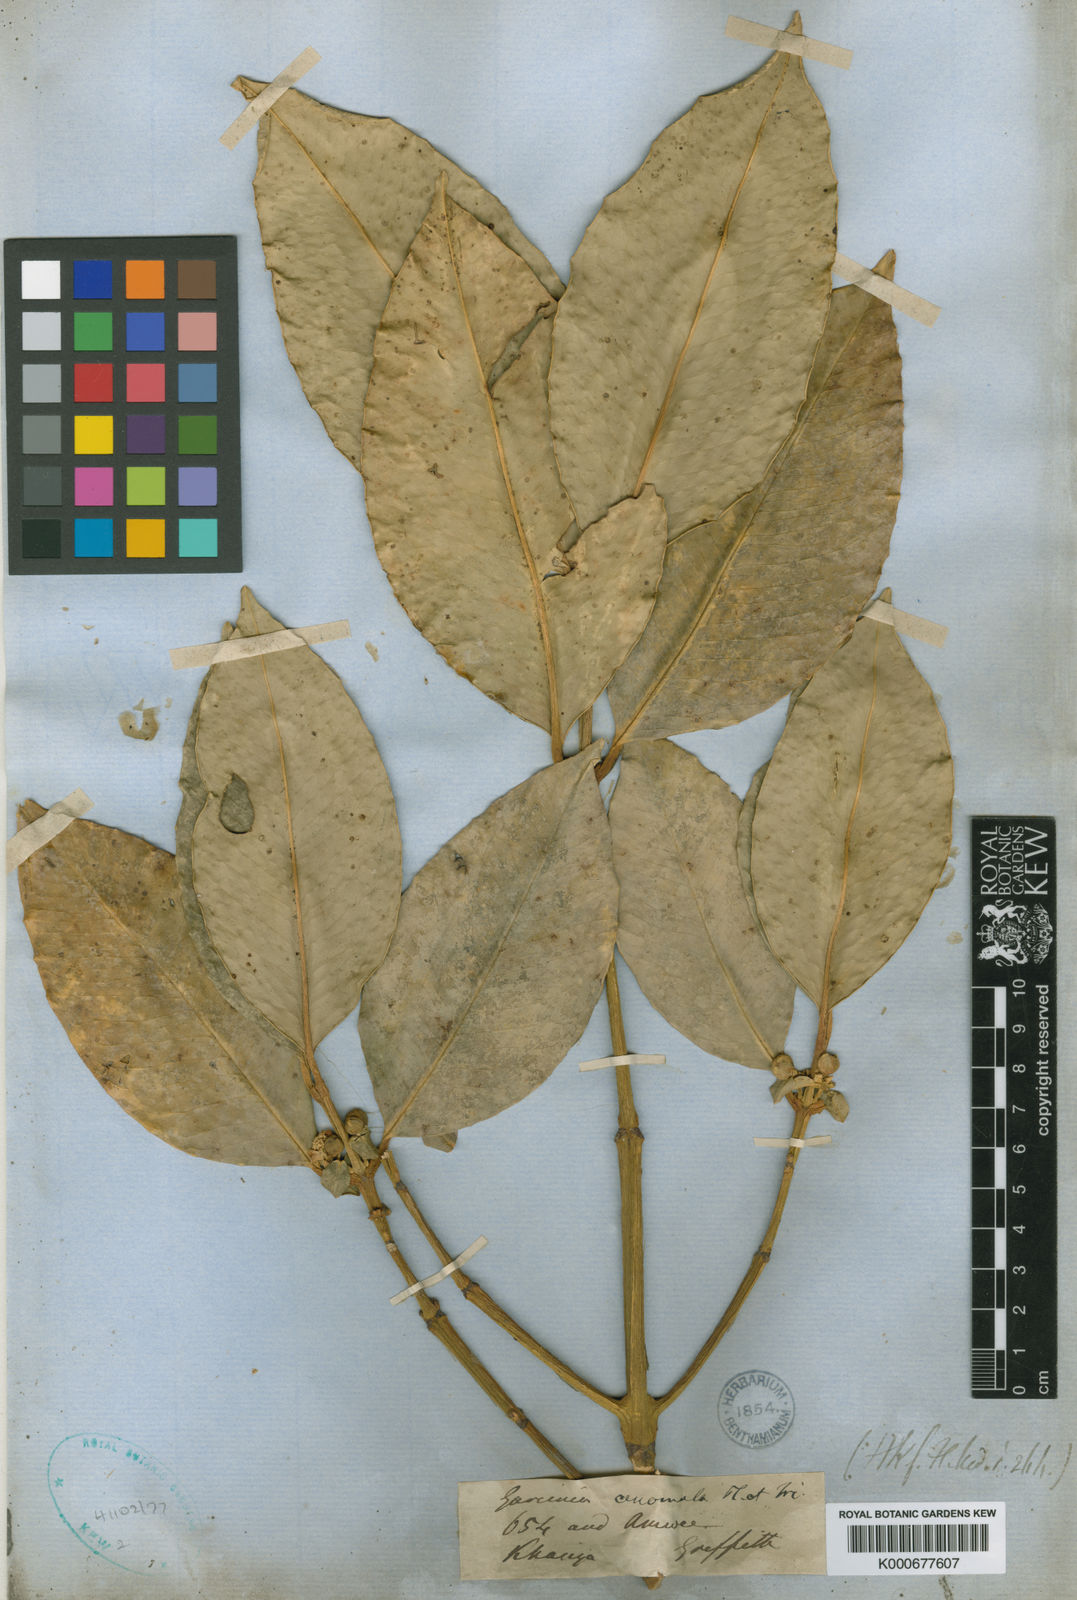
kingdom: Plantae
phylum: Tracheophyta
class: Magnoliopsida
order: Malpighiales
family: Clusiaceae
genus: Garcinia
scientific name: Garcinia anomala
